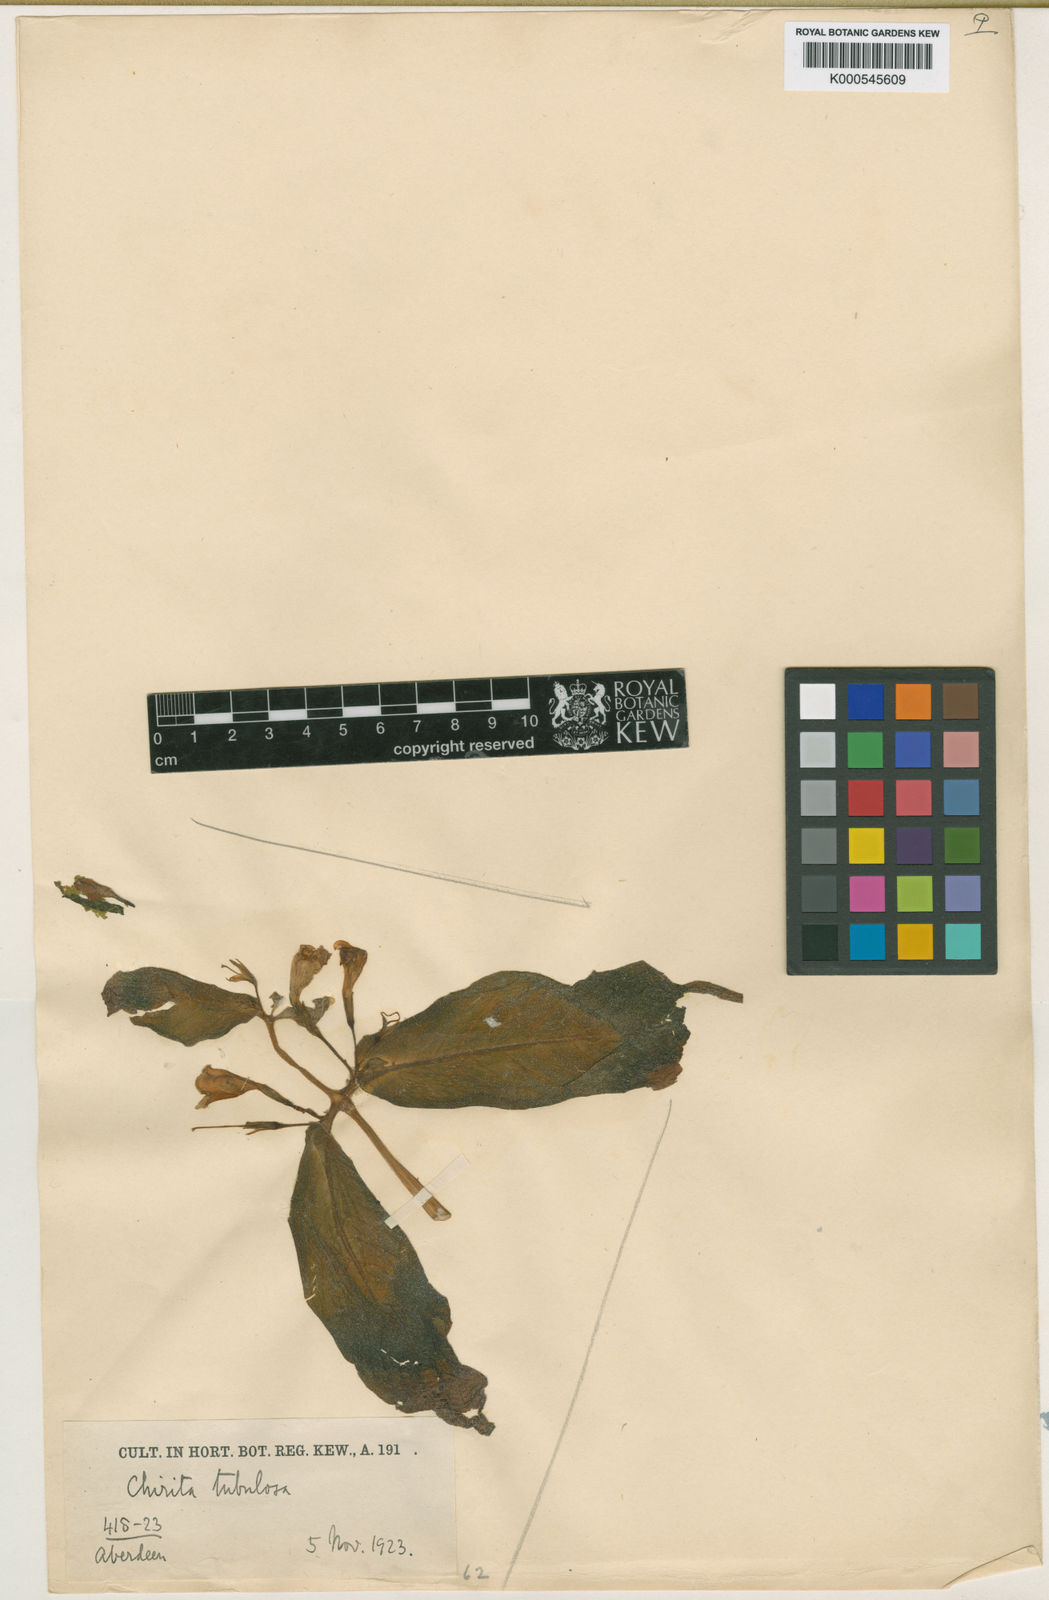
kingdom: Plantae
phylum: Tracheophyta
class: Magnoliopsida
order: Lamiales
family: Gesneriaceae
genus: Microchirita
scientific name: Microchirita tubulosa
